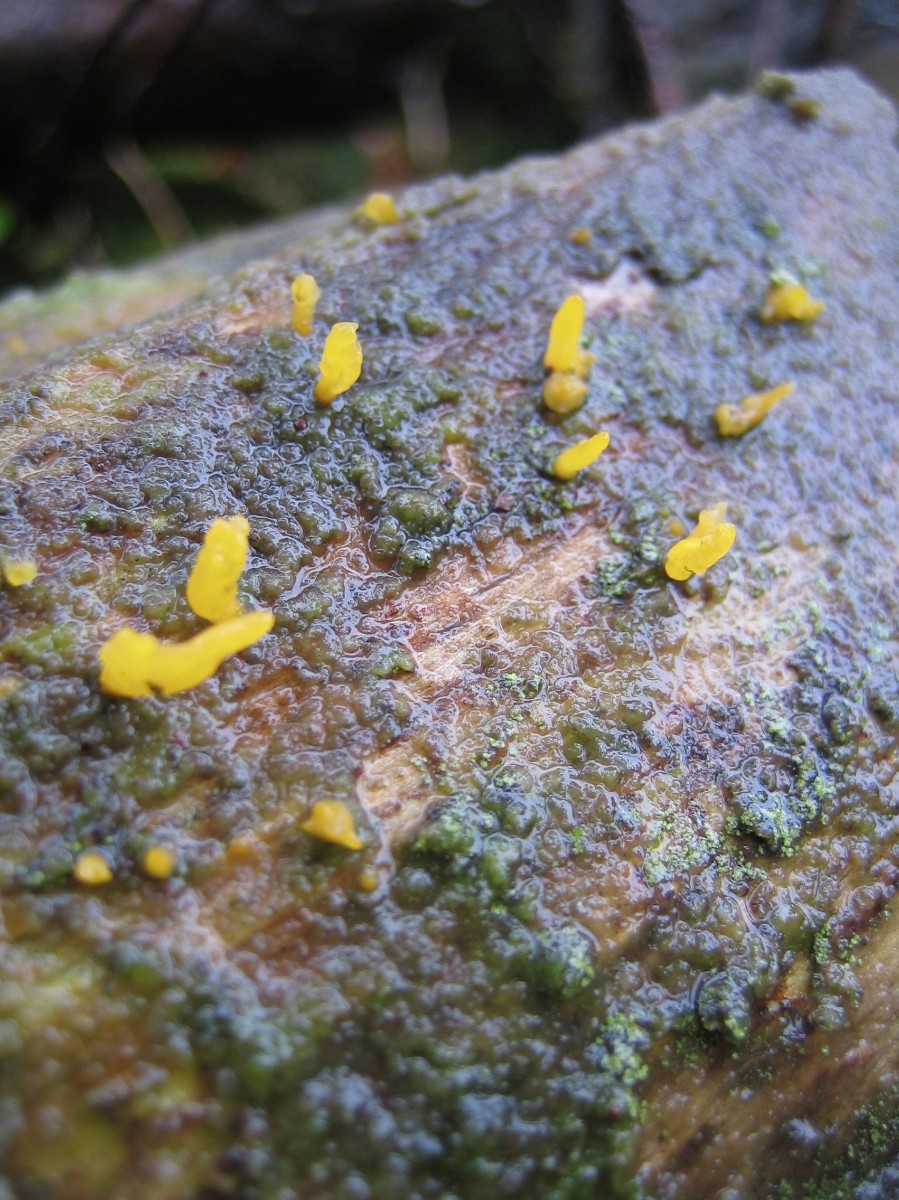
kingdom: Fungi
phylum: Basidiomycota
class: Dacrymycetes
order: Dacrymycetales
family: Dacrymycetaceae
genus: Calocera
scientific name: Calocera furcata
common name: fyrre-guldgaffel
